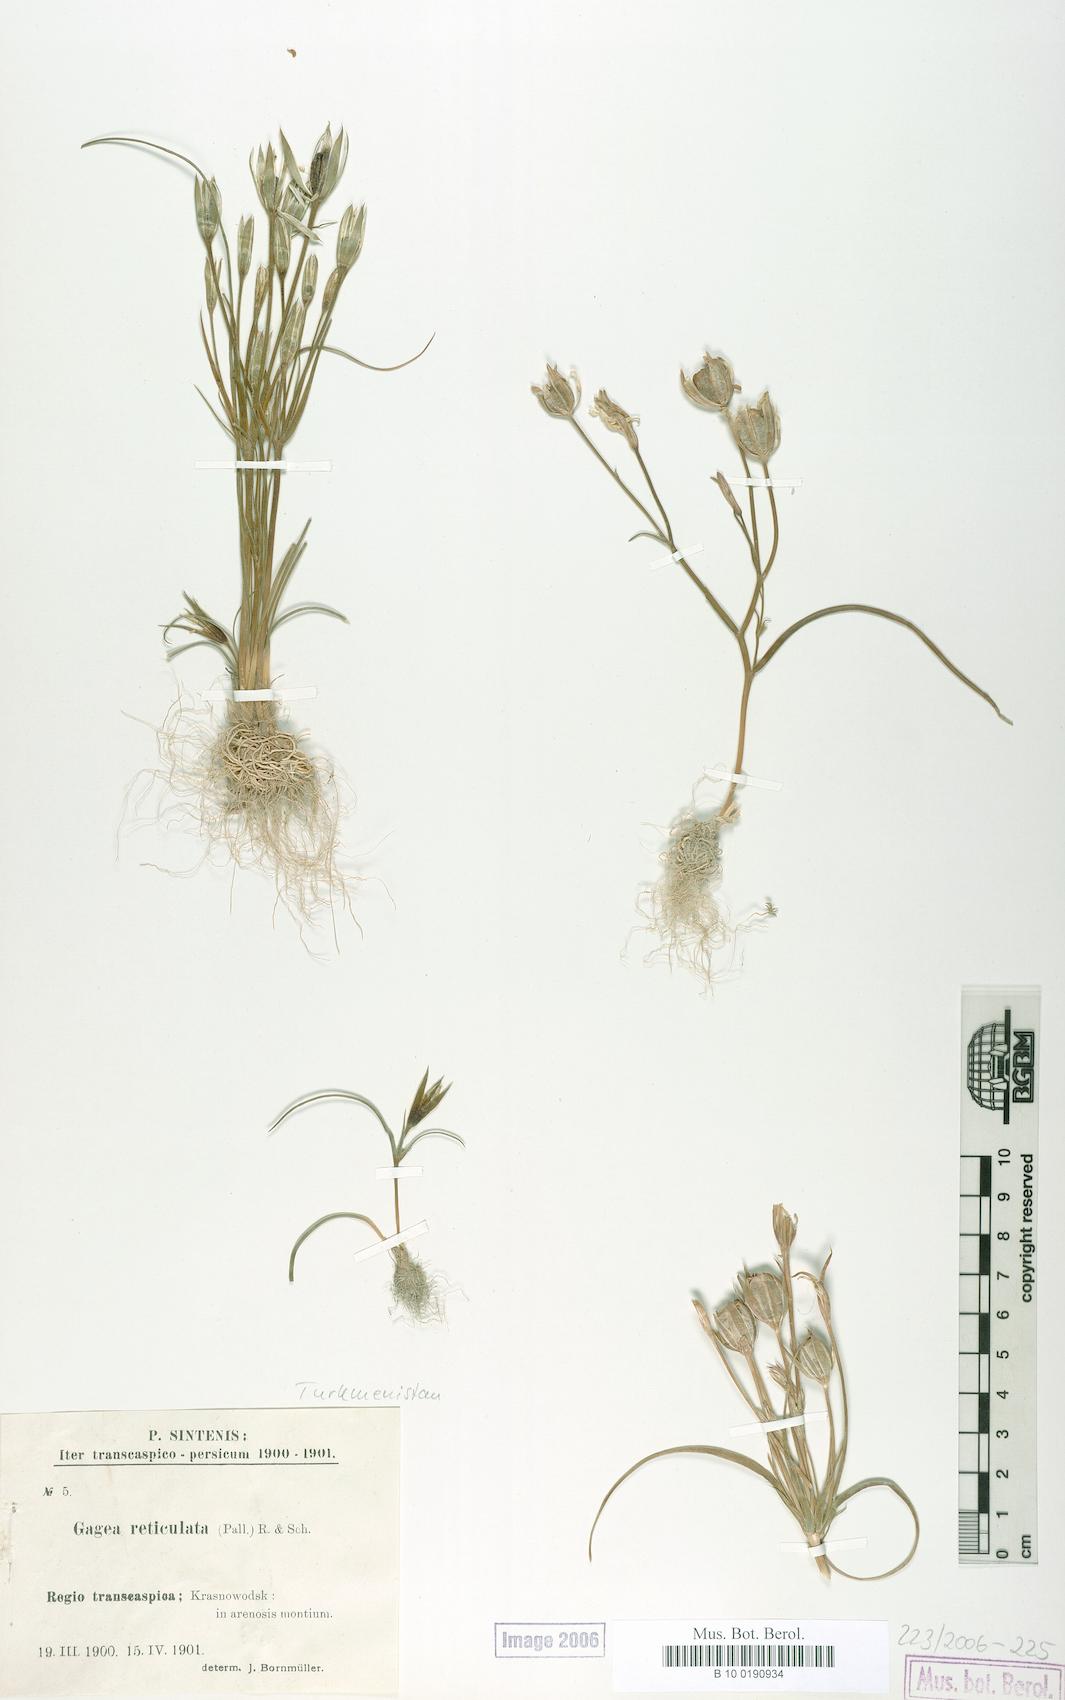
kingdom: Plantae
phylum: Tracheophyta
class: Liliopsida
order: Liliales
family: Liliaceae
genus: Gagea
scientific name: Gagea reticulata
